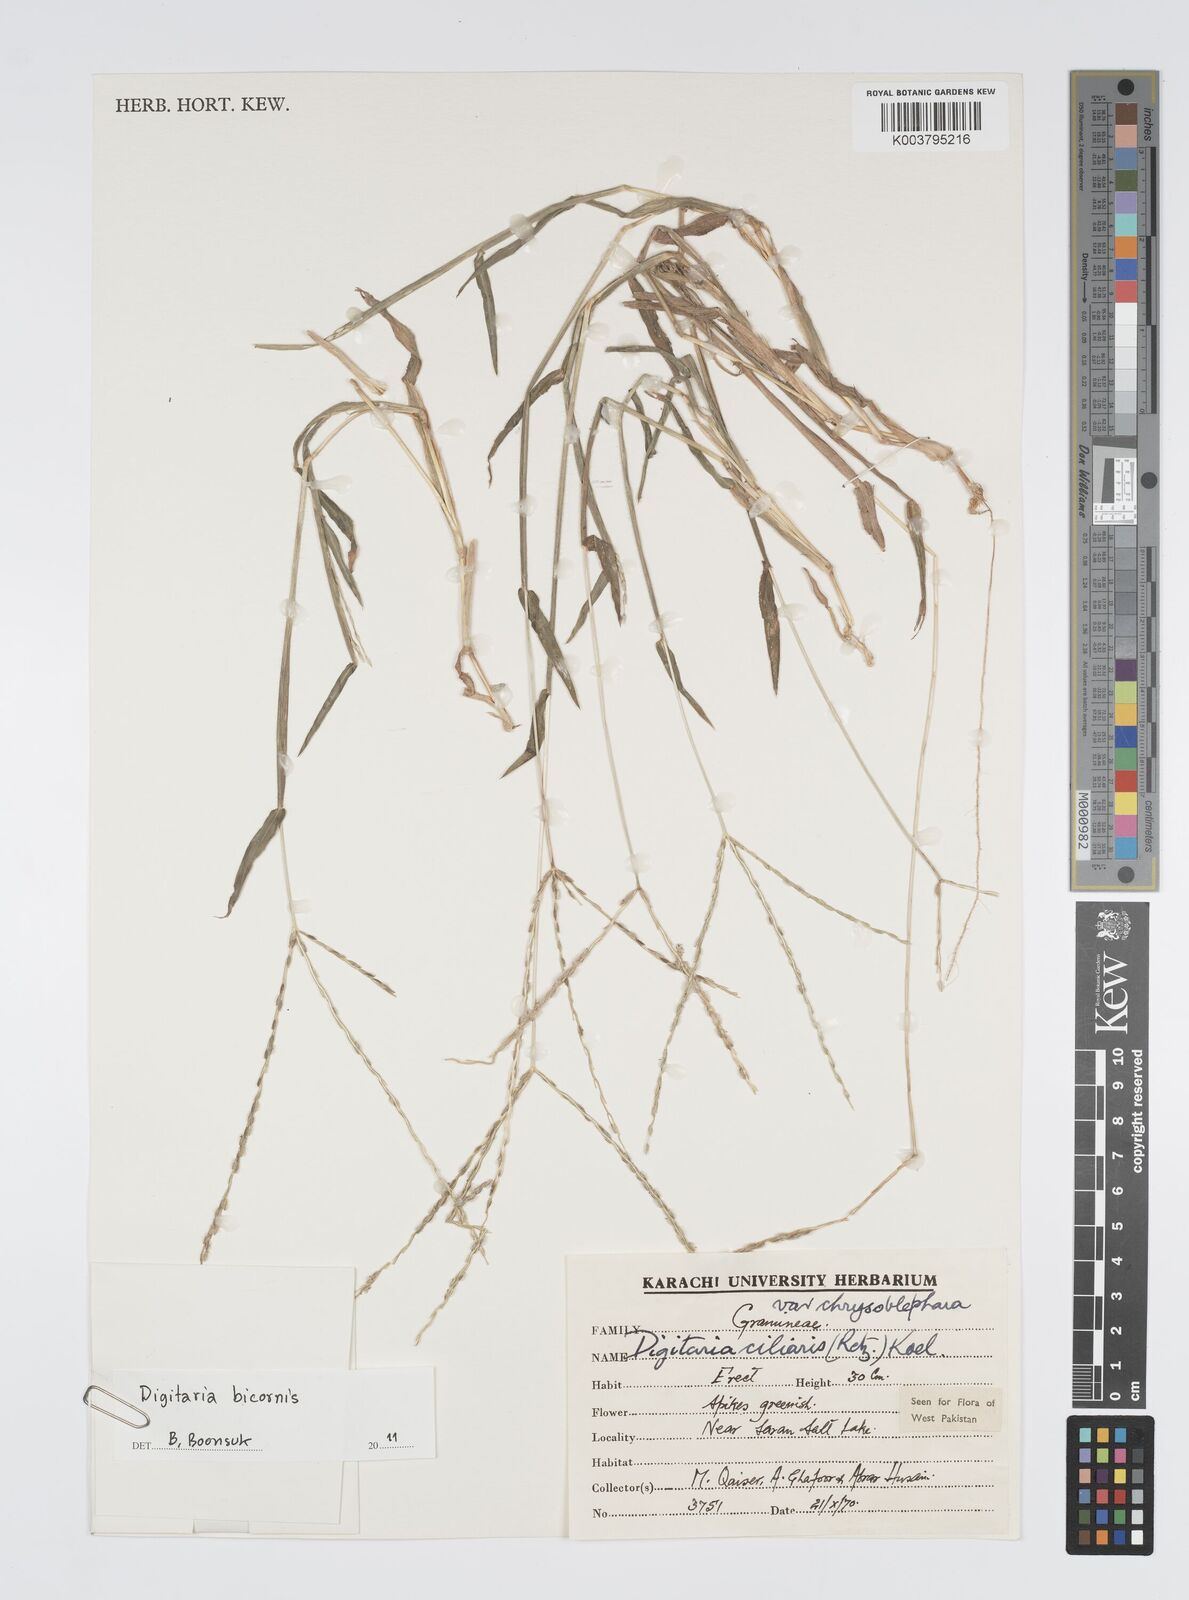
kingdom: Plantae
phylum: Tracheophyta
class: Liliopsida
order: Poales
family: Poaceae
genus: Digitaria
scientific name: Digitaria ciliaris
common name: Tropical finger-grass
